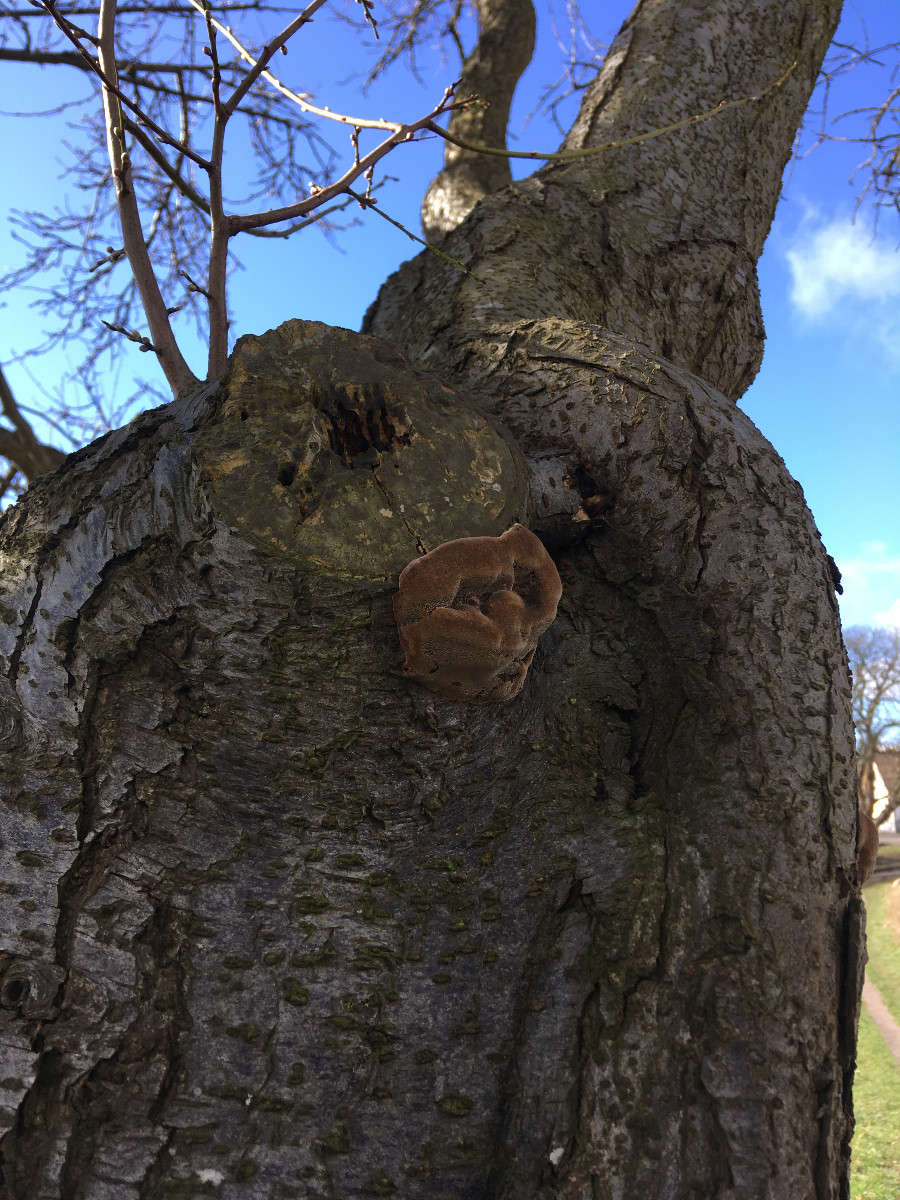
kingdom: Fungi
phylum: Basidiomycota
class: Agaricomycetes
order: Hymenochaetales
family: Hymenochaetaceae
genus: Phellinus
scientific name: Phellinus pomaceus
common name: blomme-ildporesvamp
